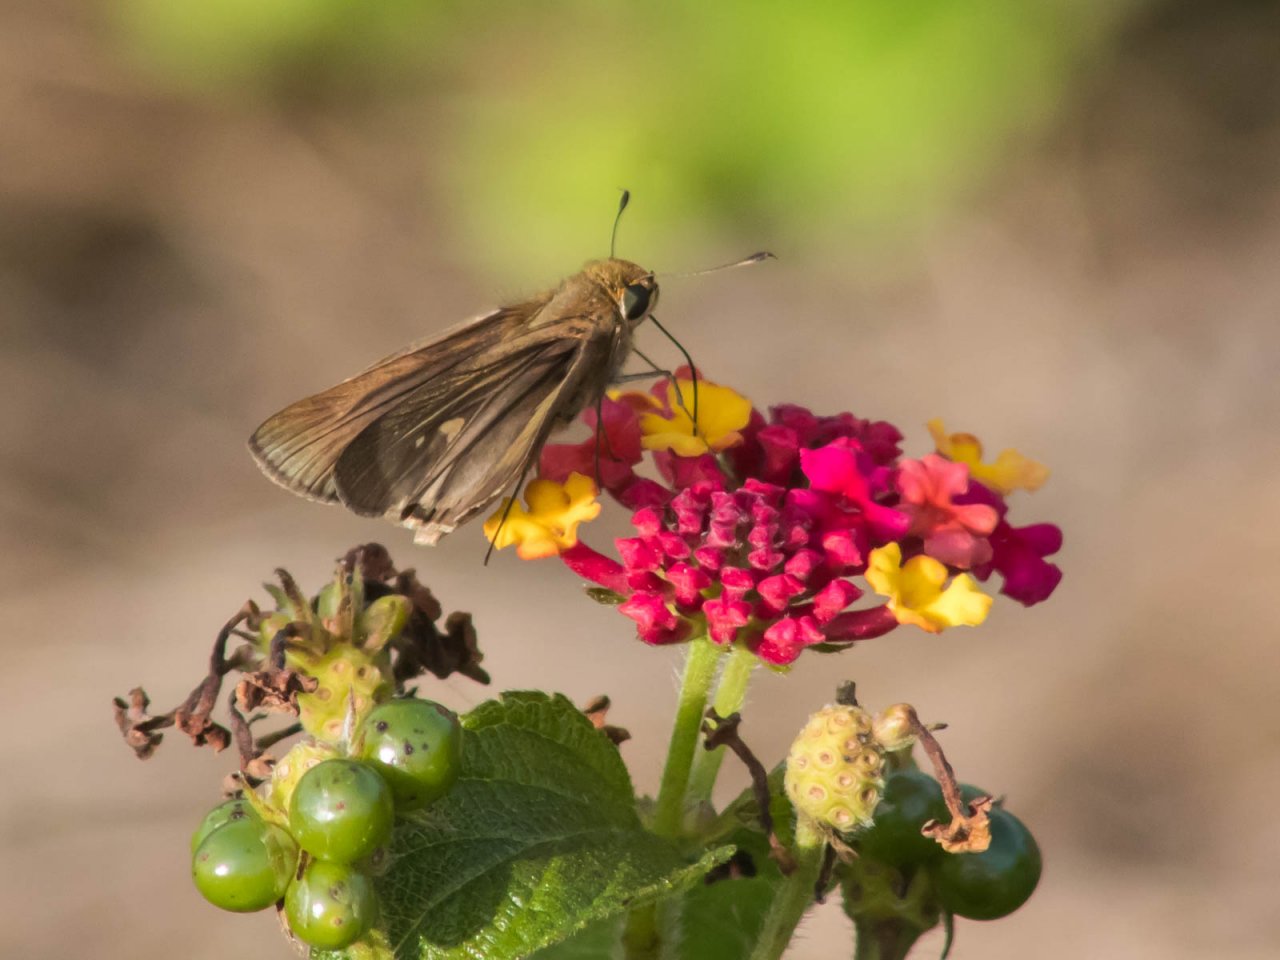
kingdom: Animalia
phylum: Arthropoda
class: Insecta
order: Lepidoptera
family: Hesperiidae
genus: Panoquina
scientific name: Panoquina ocola
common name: Ocola Skipper
